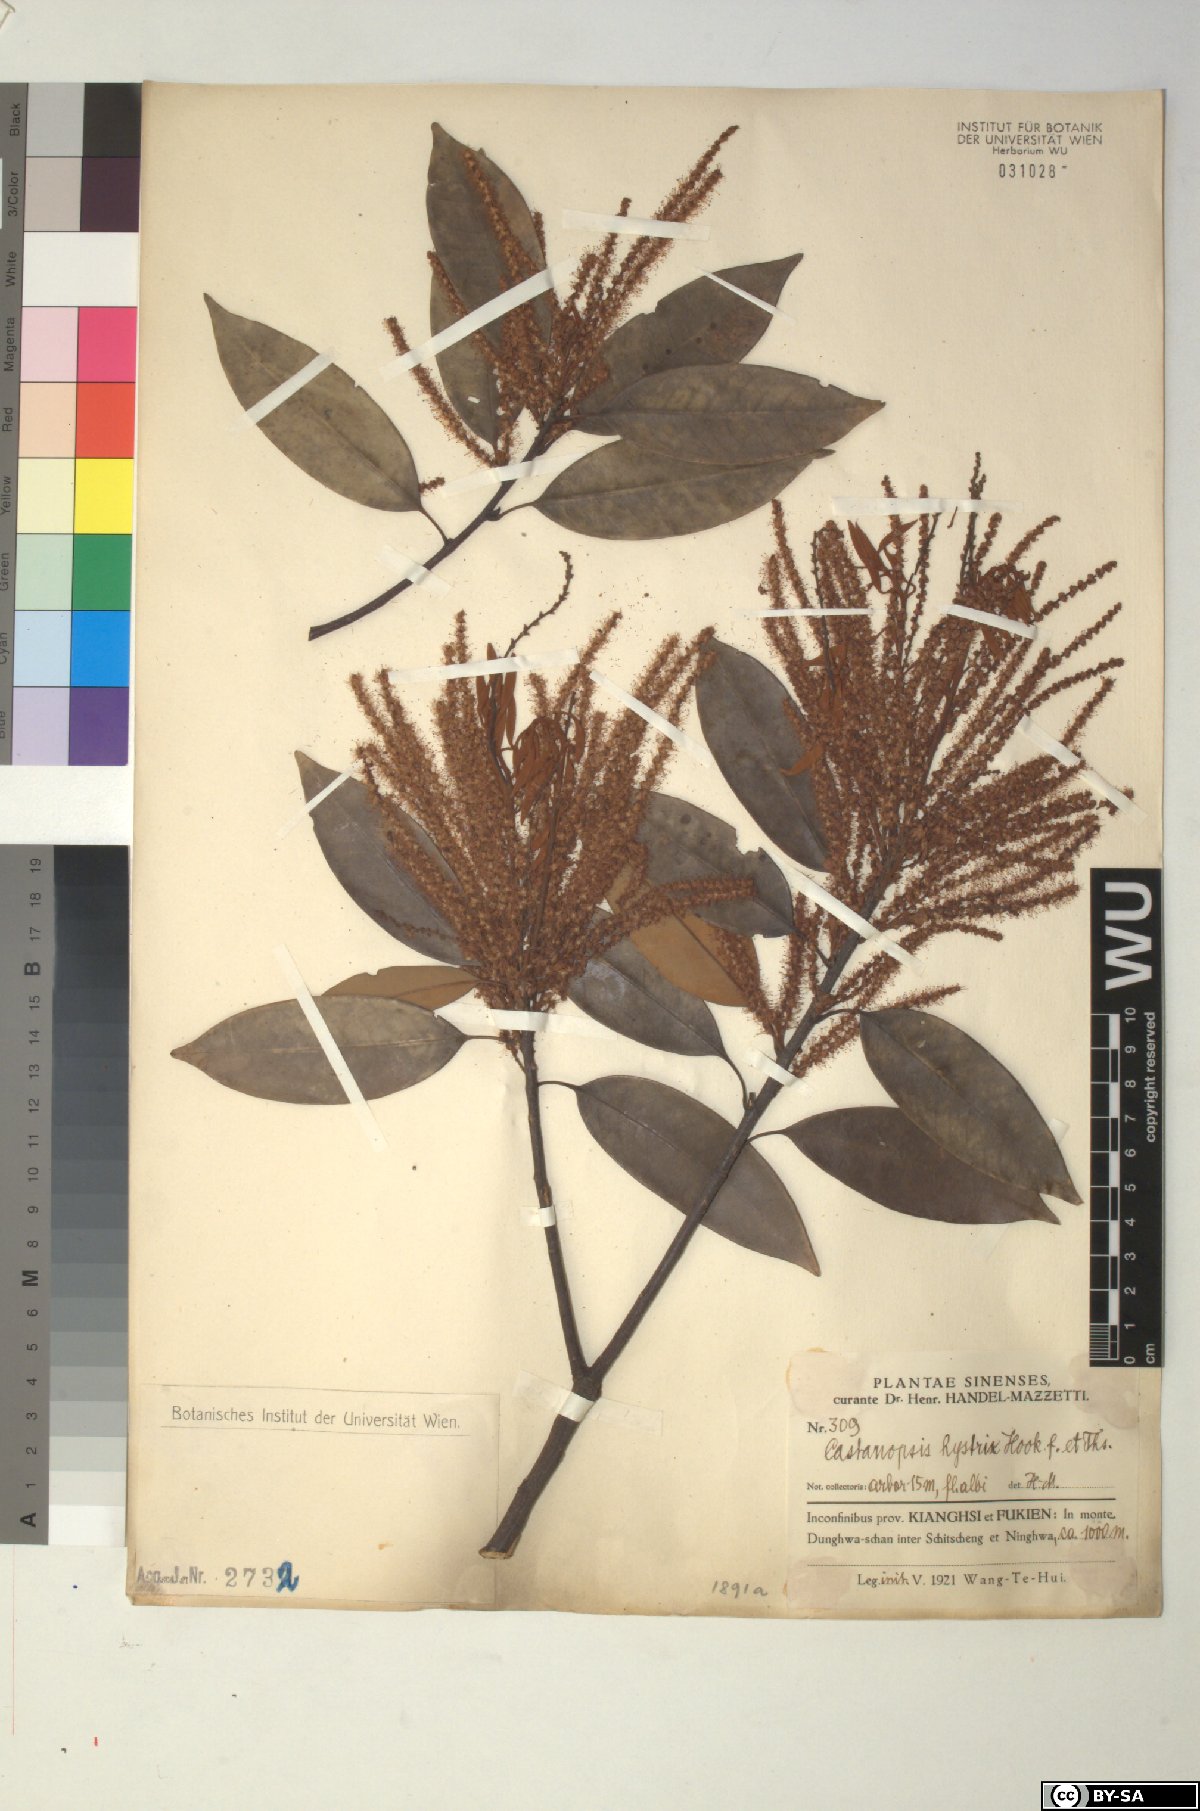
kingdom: Plantae
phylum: Tracheophyta
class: Magnoliopsida
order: Fagales
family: Fagaceae
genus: Castanopsis
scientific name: Castanopsis hystrix
